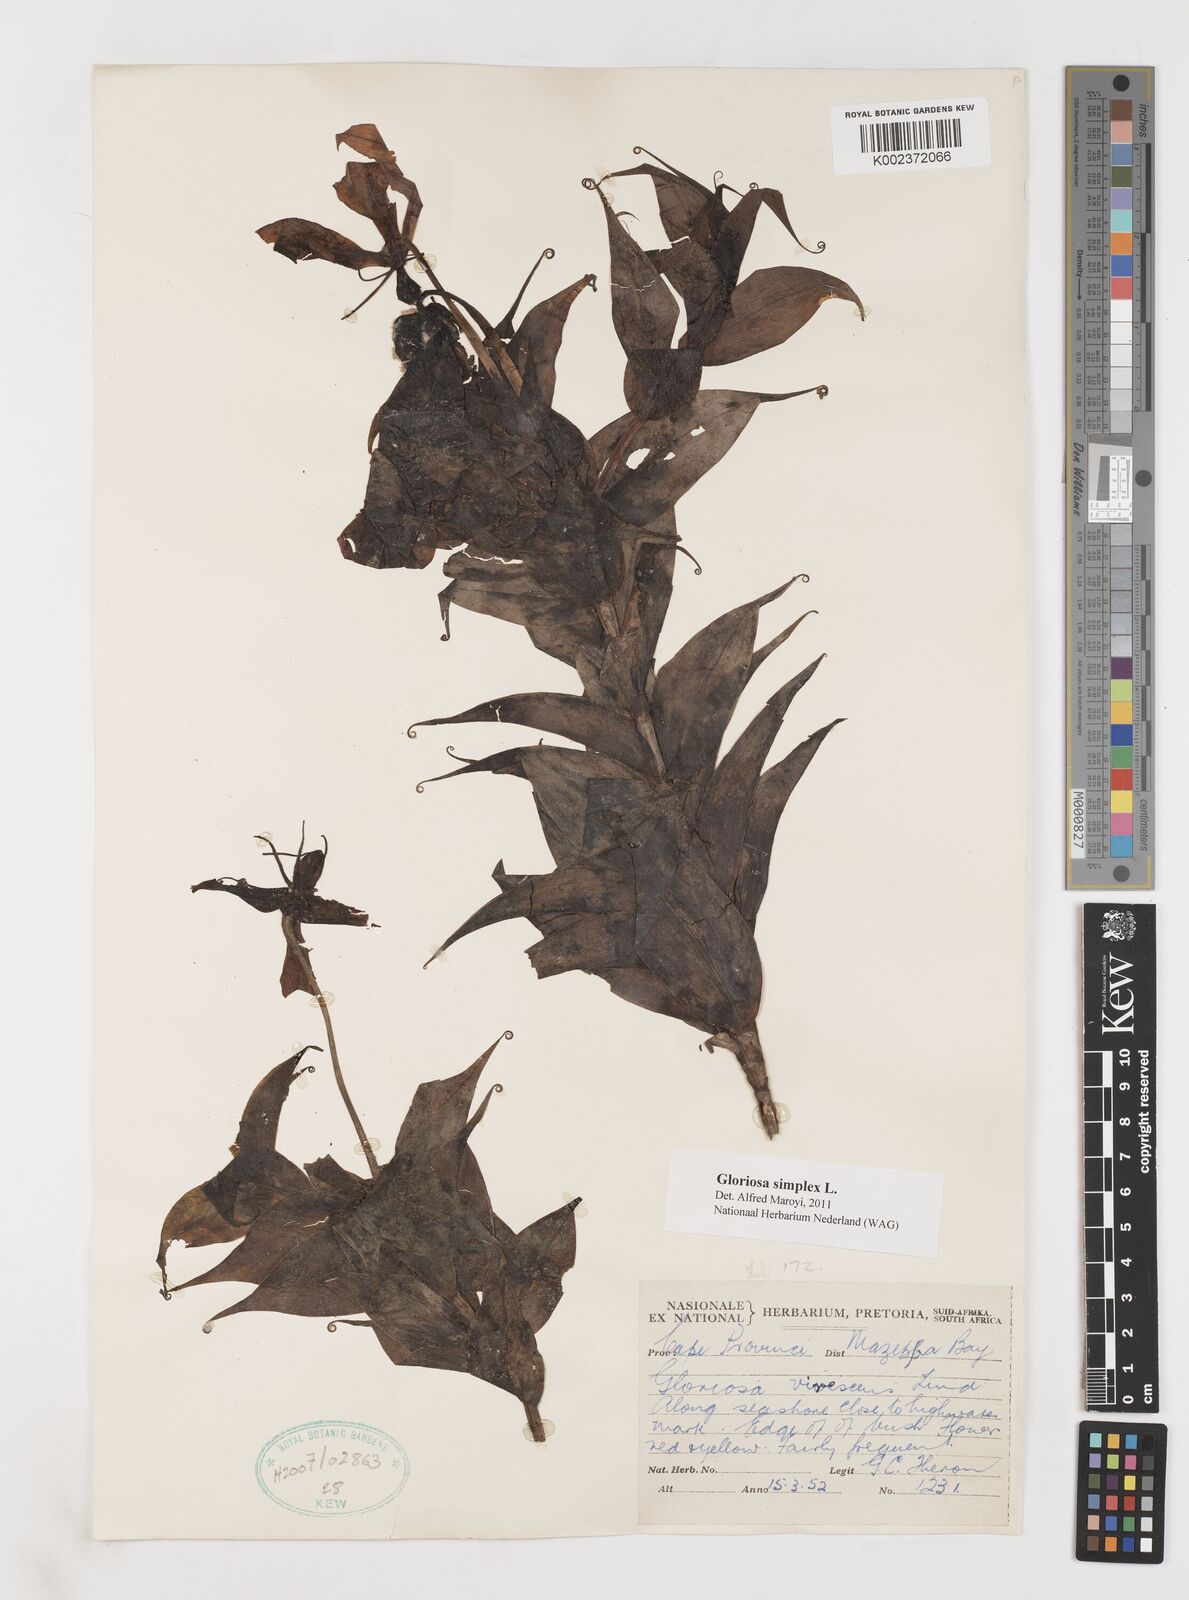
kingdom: Plantae
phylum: Tracheophyta
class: Liliopsida
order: Liliales
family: Colchicaceae
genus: Gloriosa
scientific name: Gloriosa simplex
